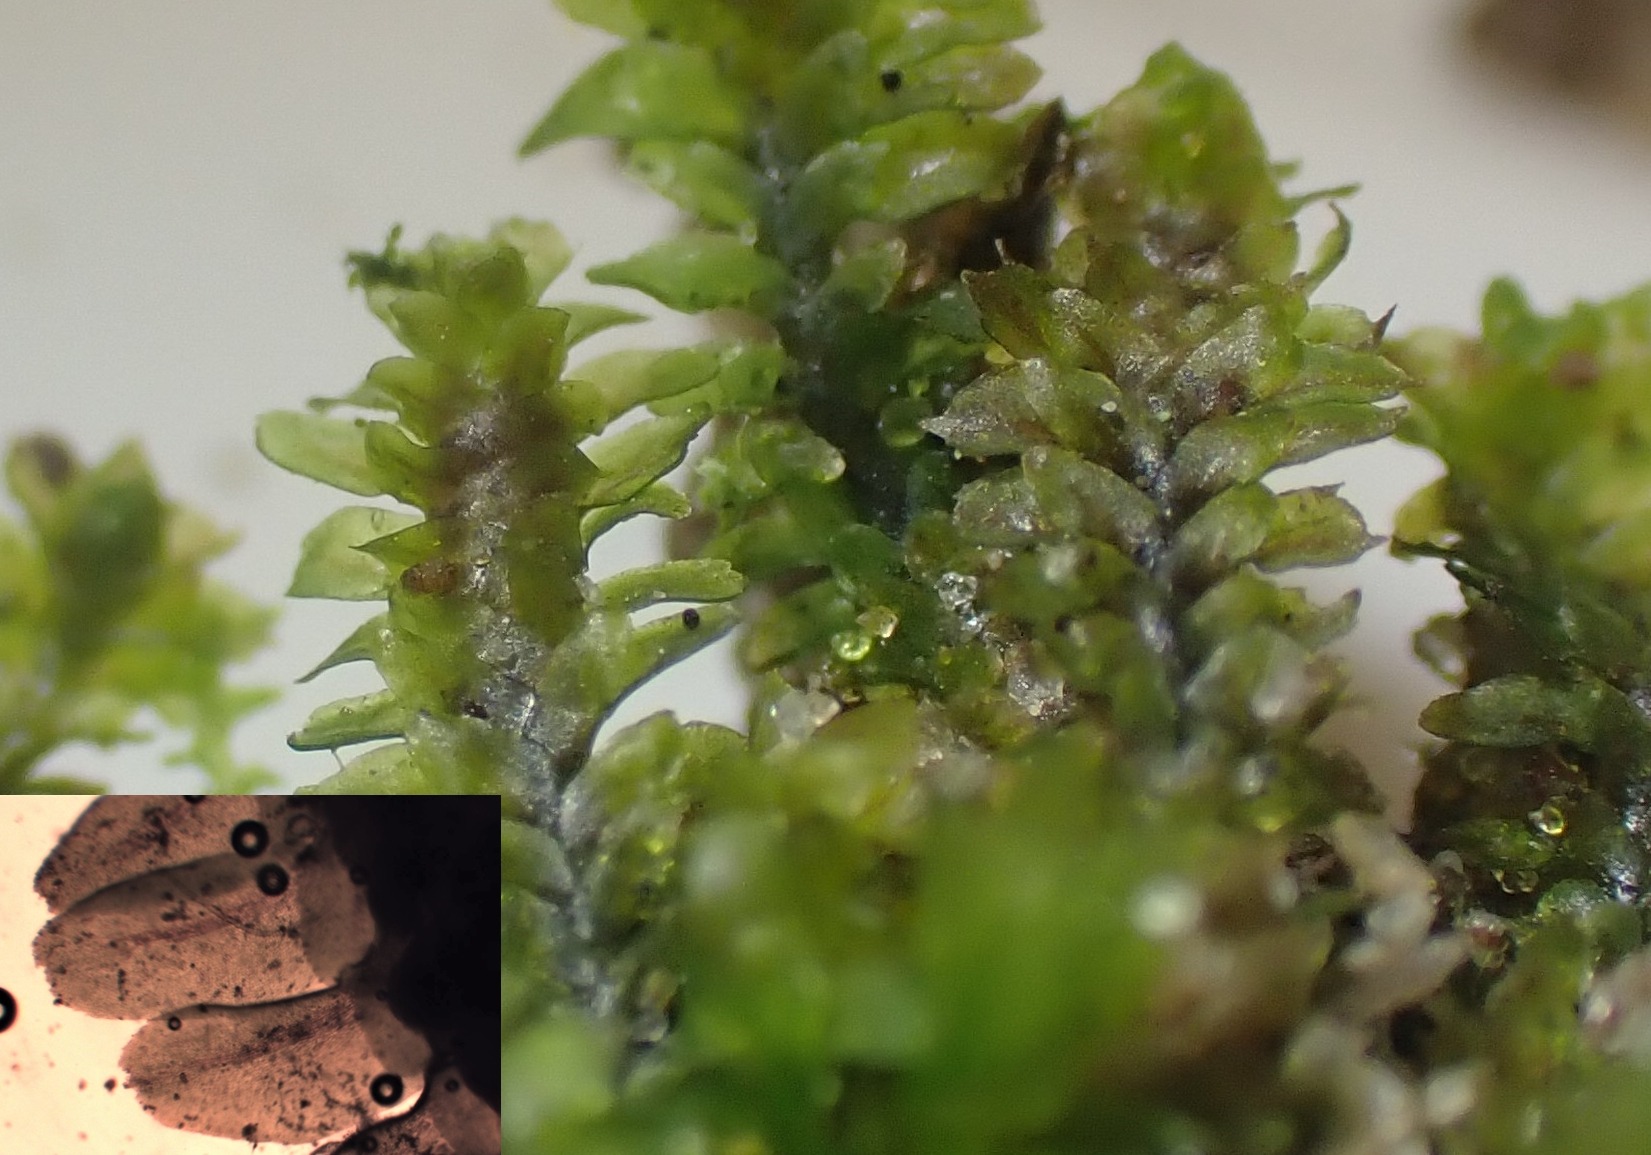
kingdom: Plantae
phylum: Marchantiophyta
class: Jungermanniopsida
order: Jungermanniales
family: Scapaniaceae
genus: Diplophyllum
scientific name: Diplophyllum albicans
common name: Stribet dobbeltblad
